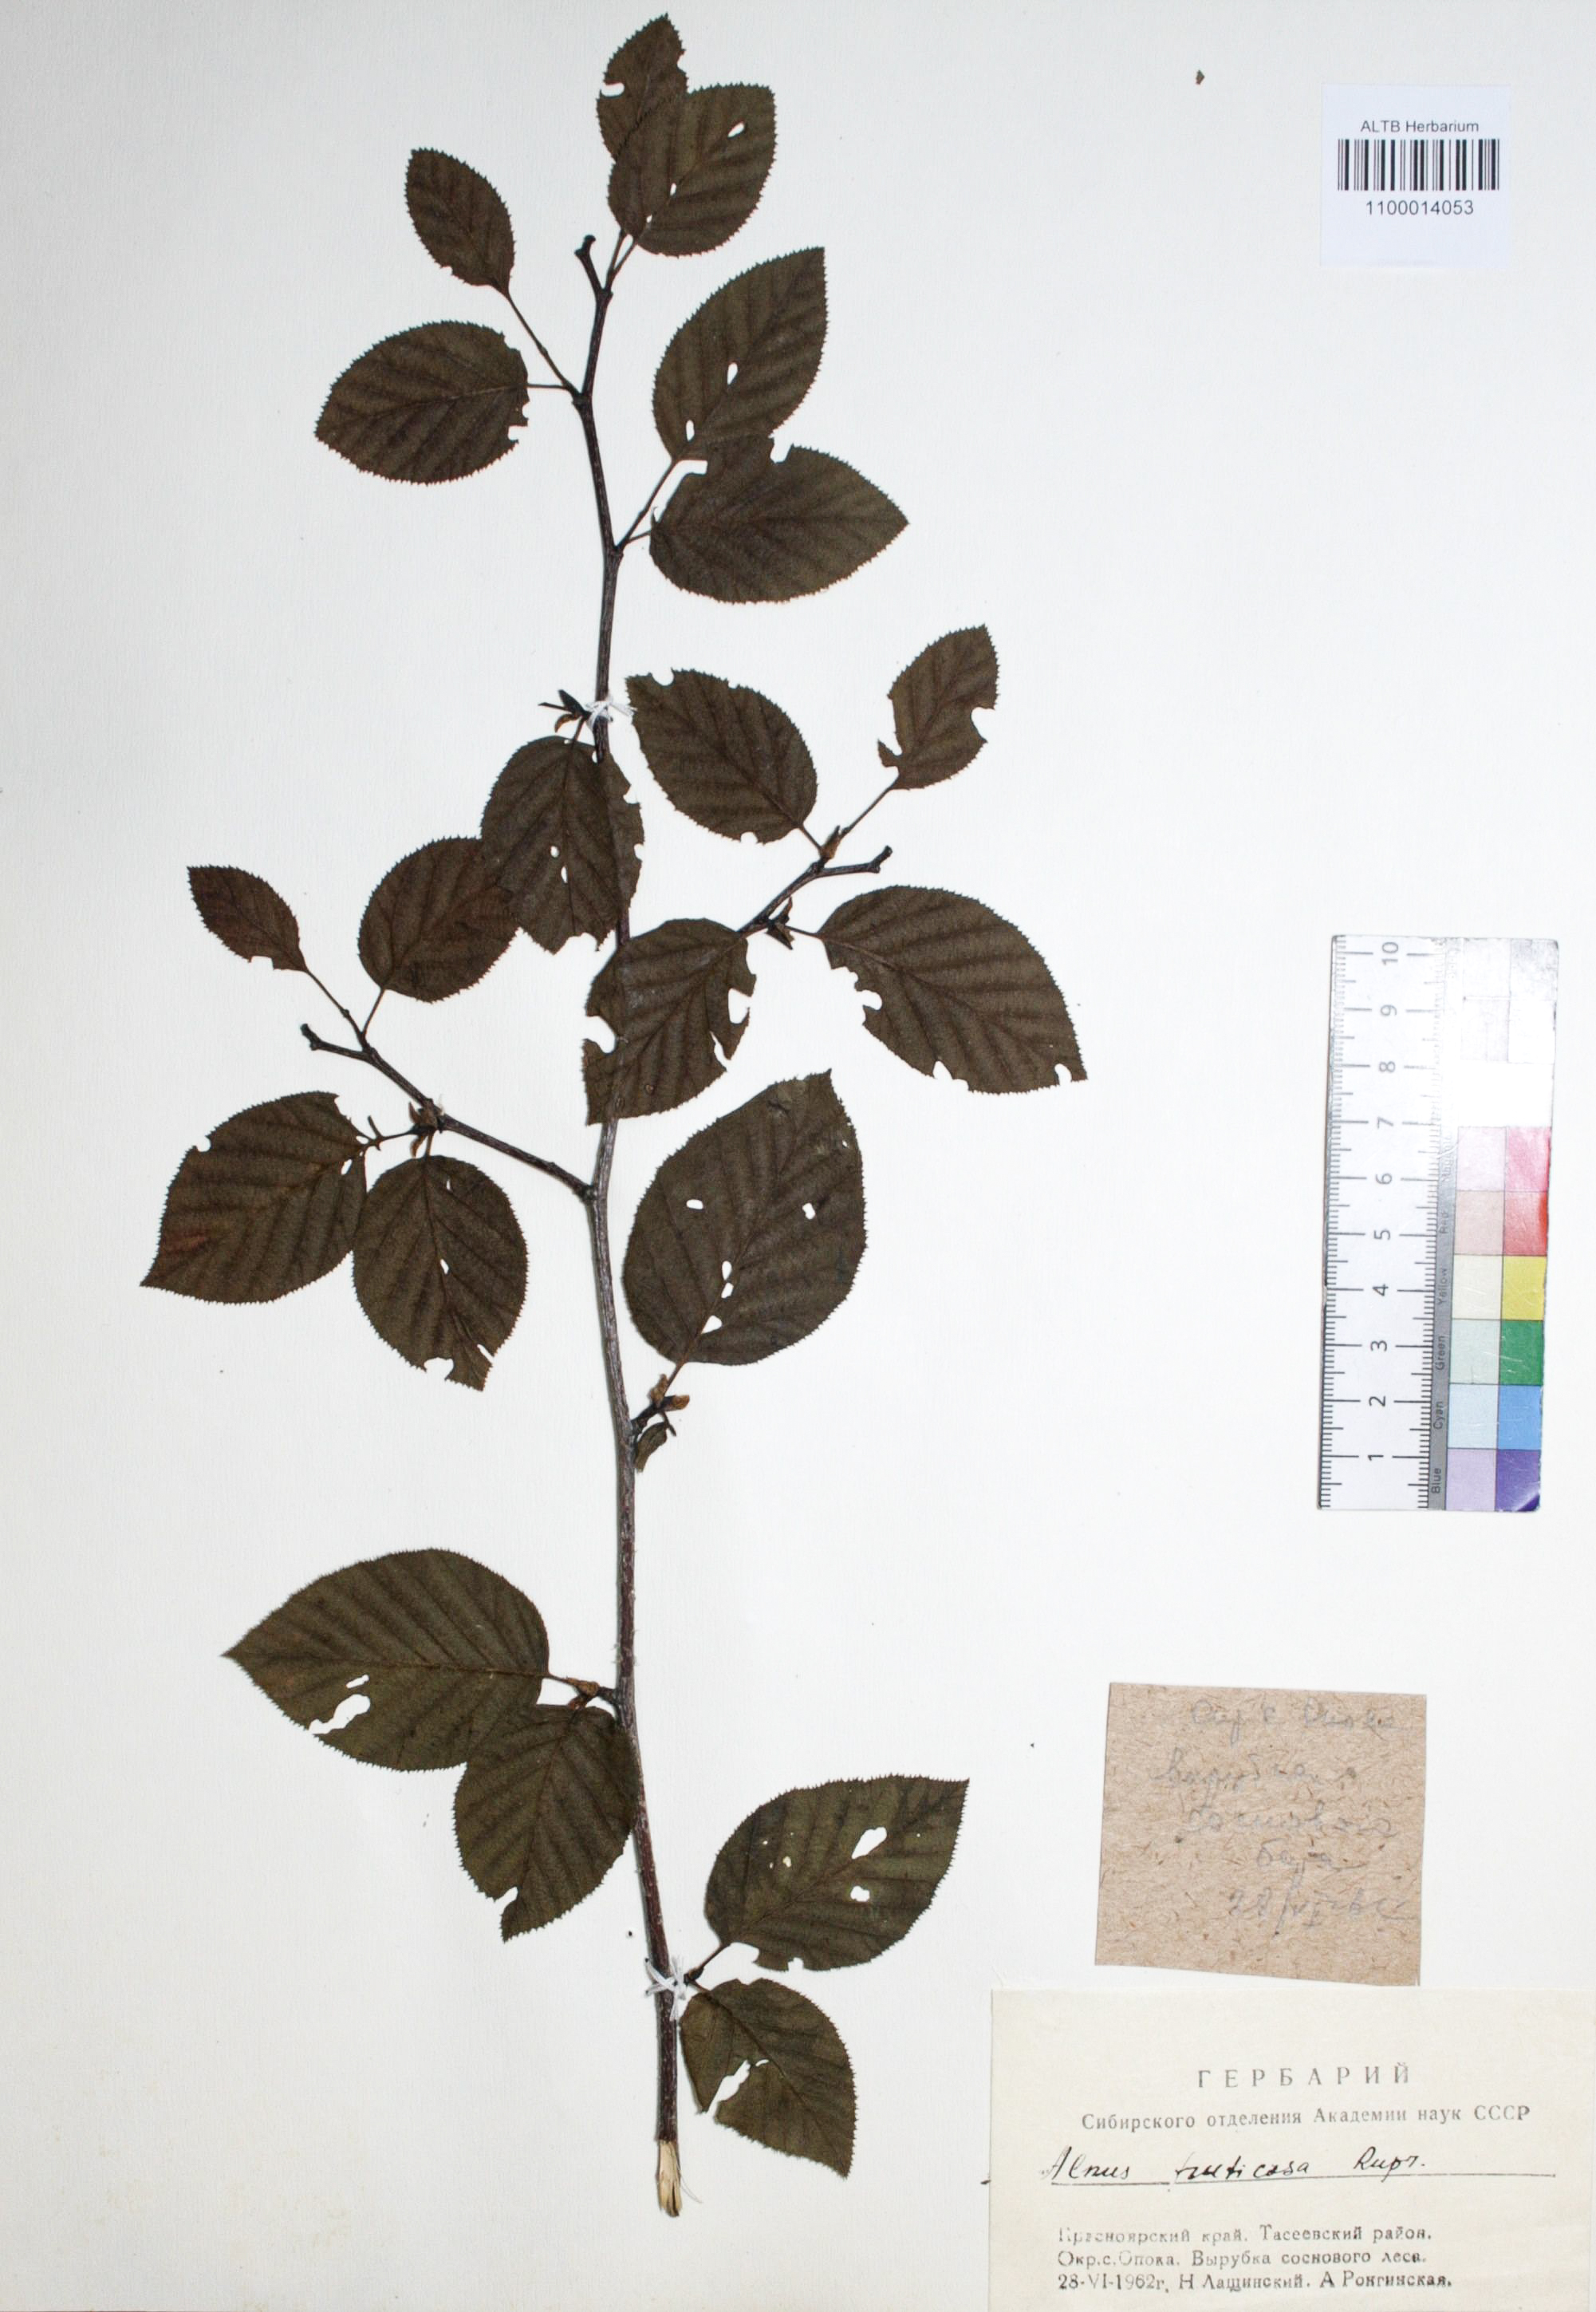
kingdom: Plantae
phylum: Tracheophyta
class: Magnoliopsida
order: Fagales
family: Betulaceae
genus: Alnus
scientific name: Alnus alnobetula
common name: Green alder
